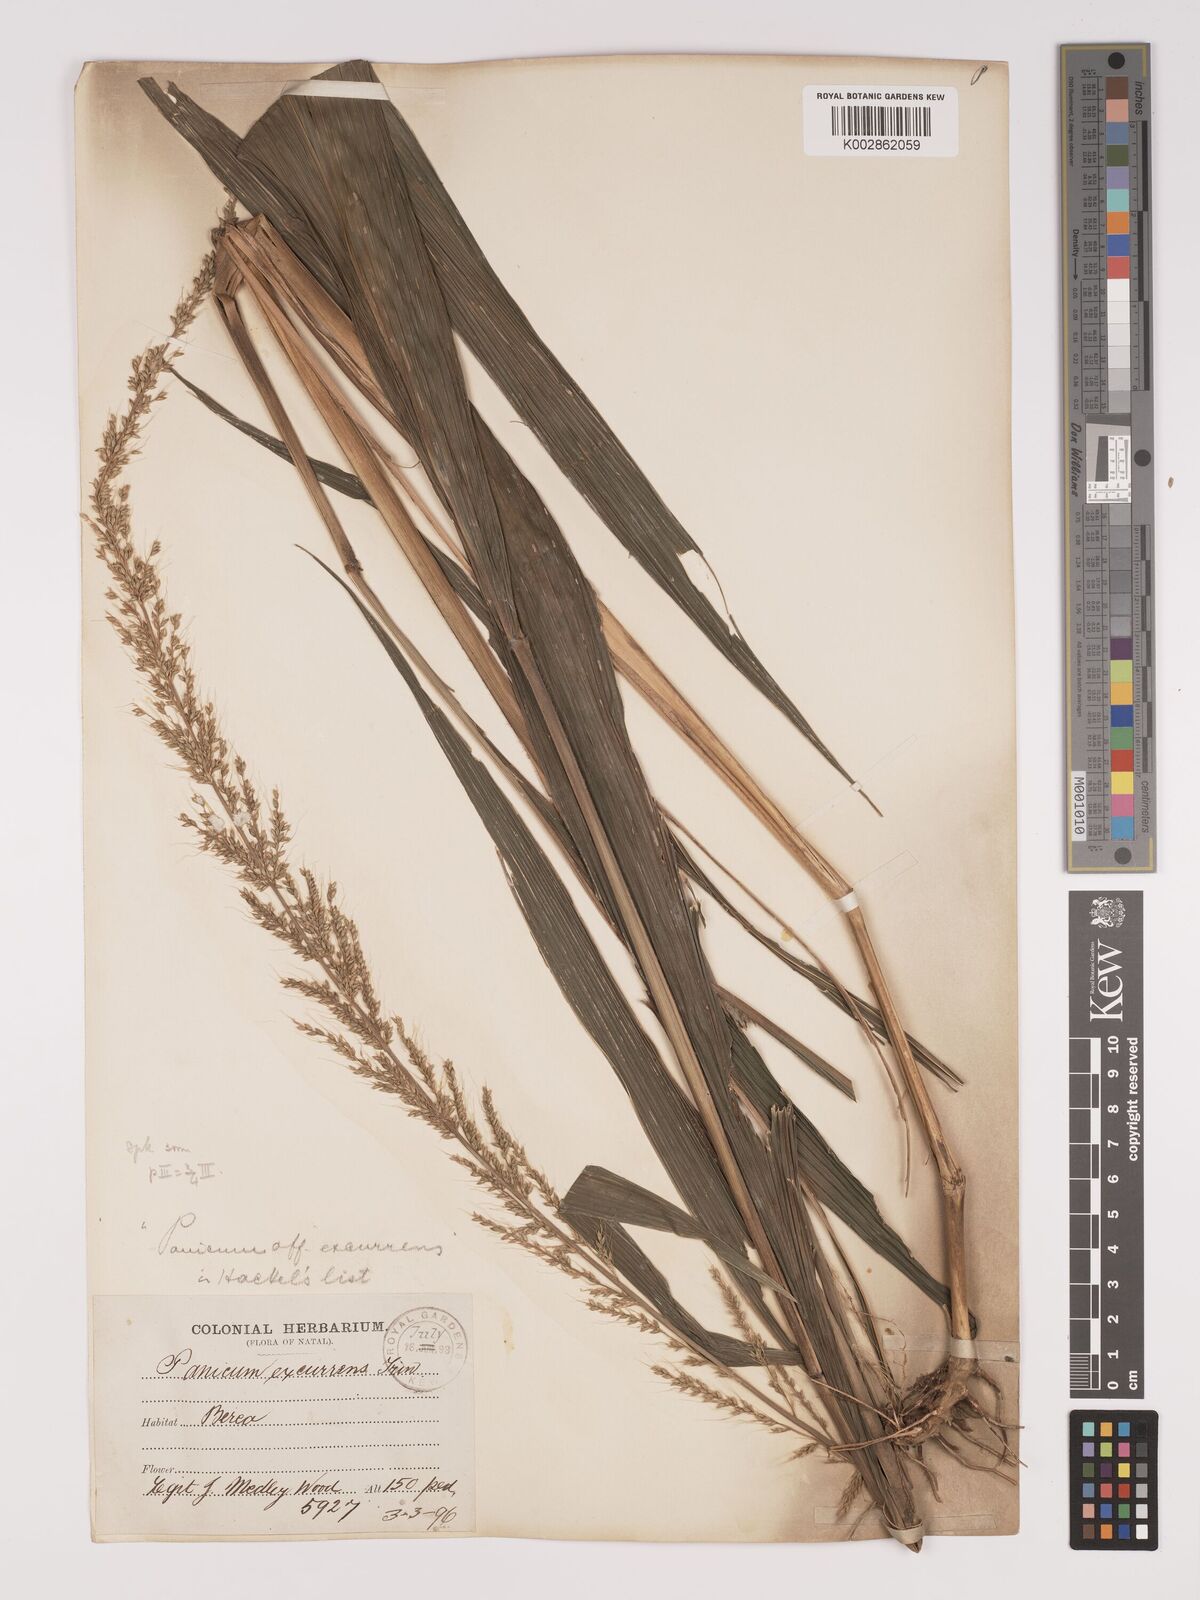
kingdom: Plantae
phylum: Tracheophyta
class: Liliopsida
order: Poales
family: Poaceae
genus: Setaria
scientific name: Setaria megaphylla
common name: Bigleaf bristlegrass
